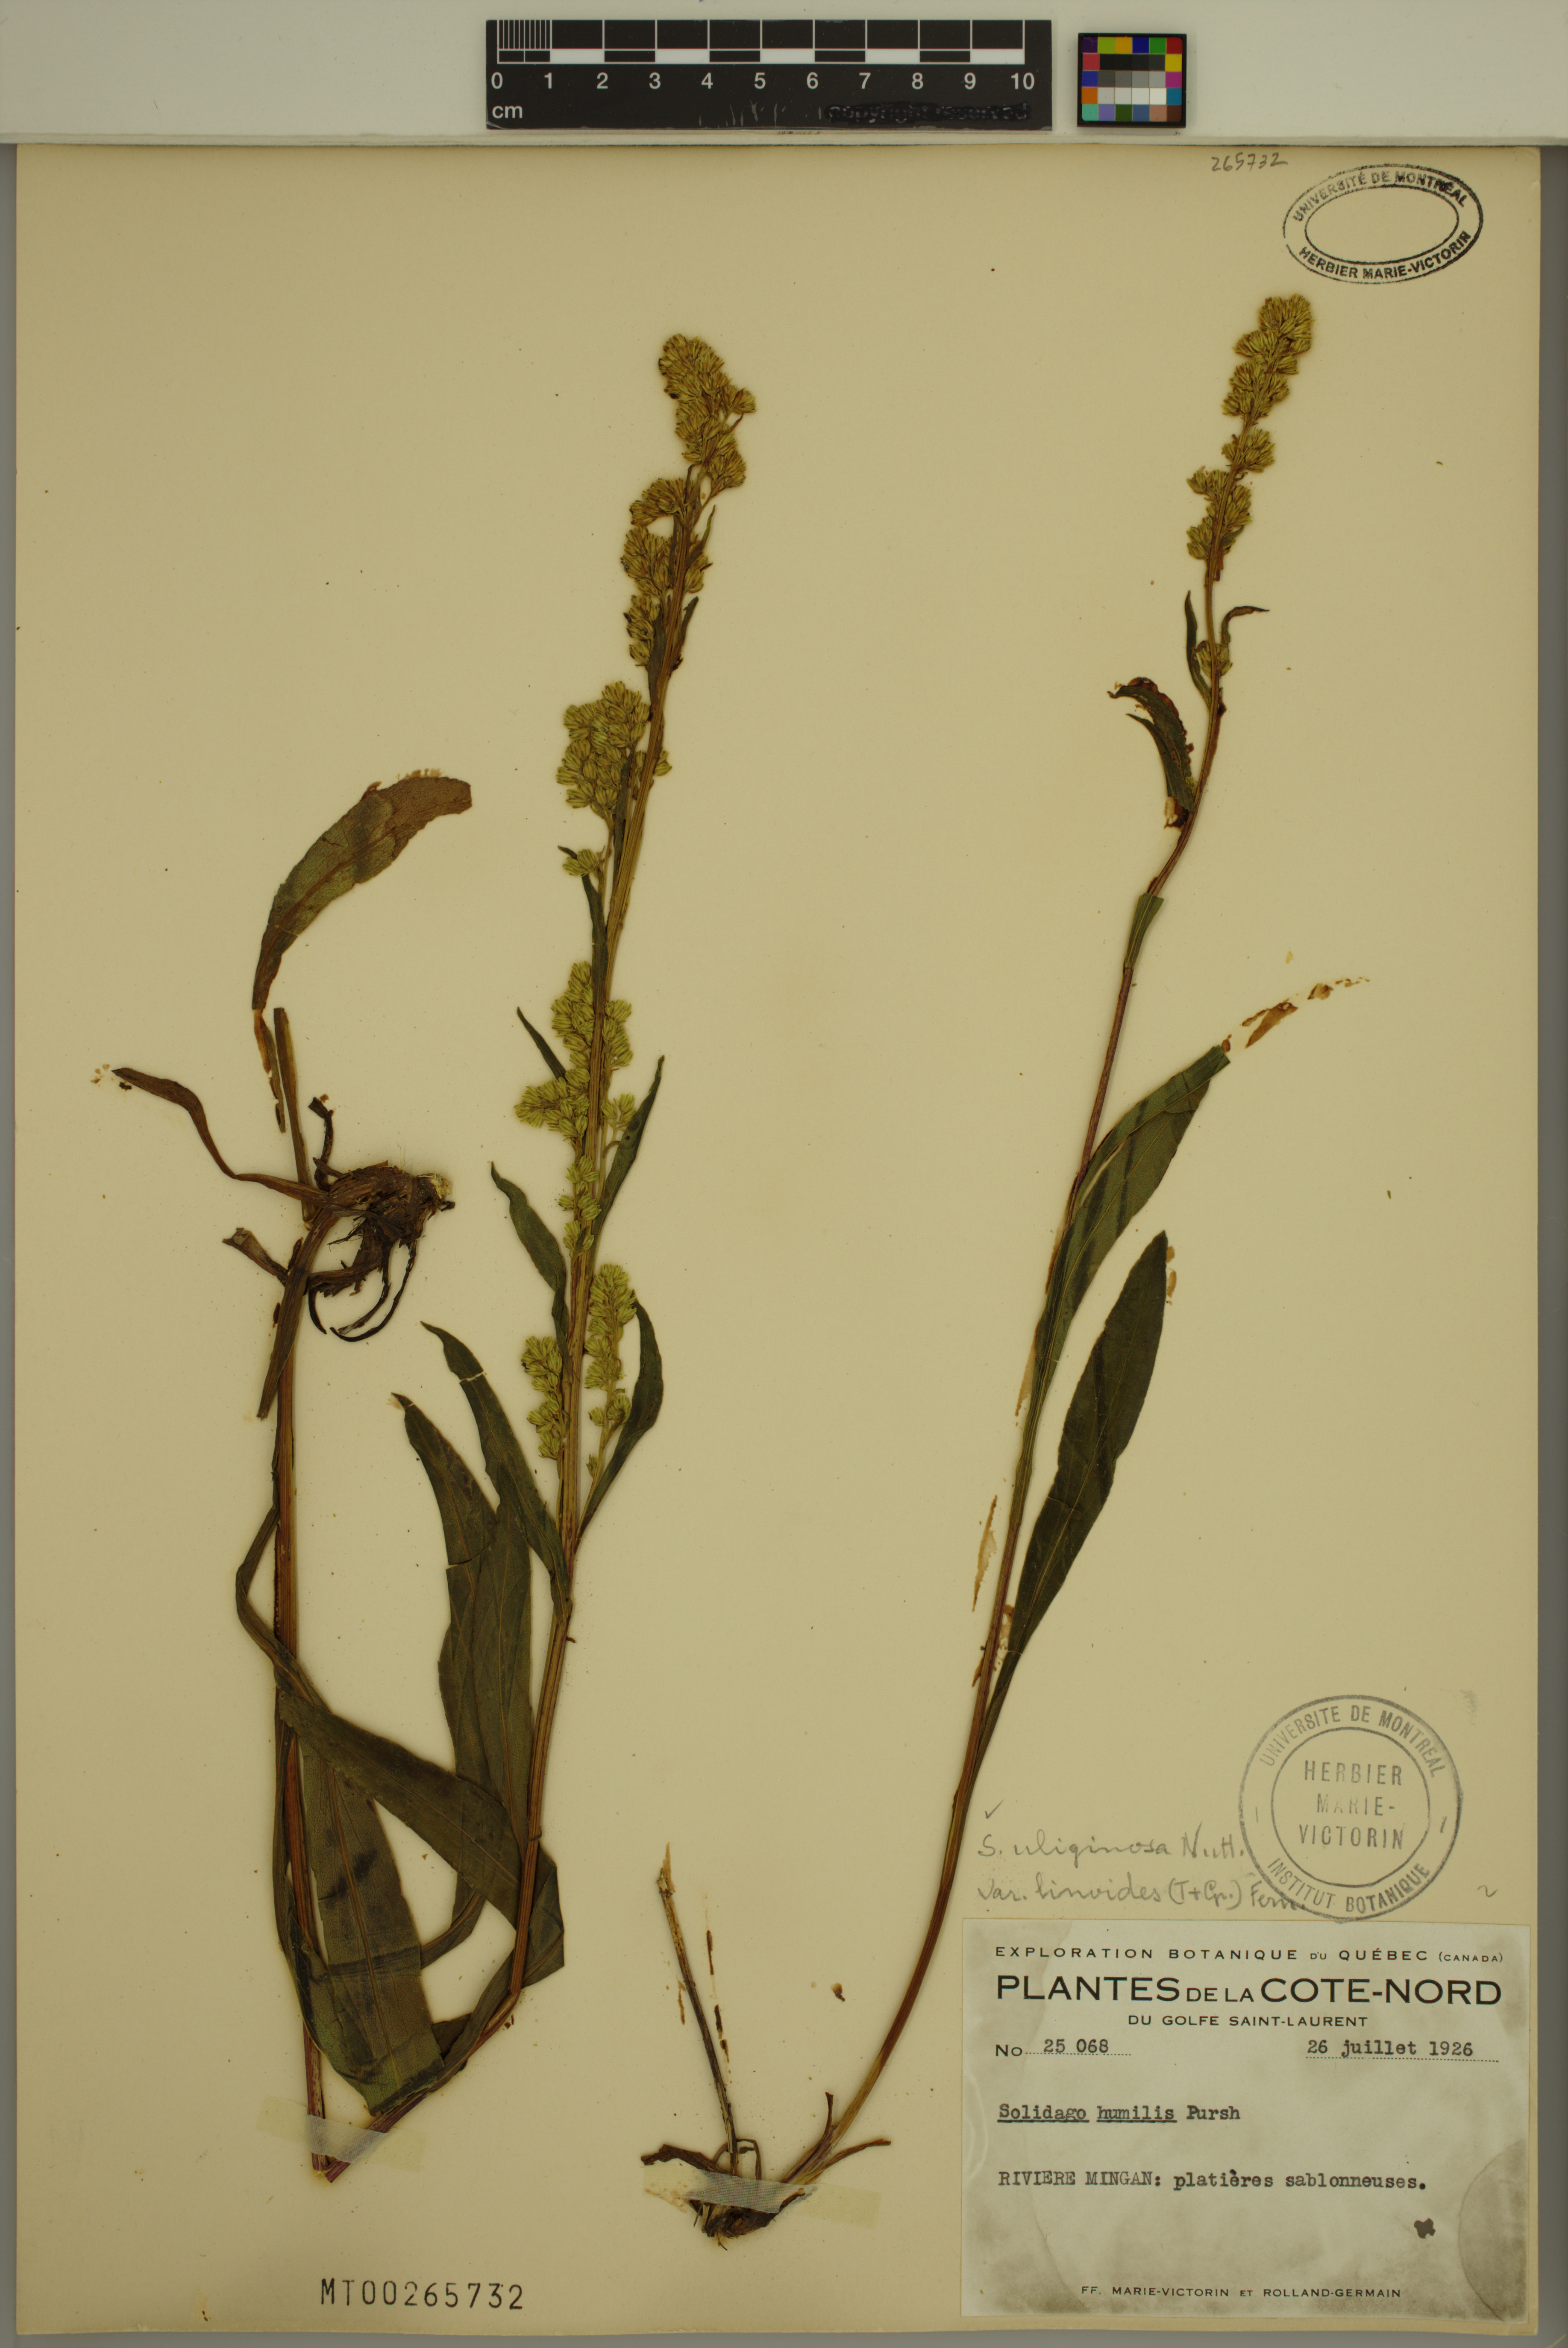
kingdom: Plantae
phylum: Tracheophyta
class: Magnoliopsida
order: Asterales
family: Asteraceae
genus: Solidago
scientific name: Solidago uliginosa
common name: Bog goldenrod
